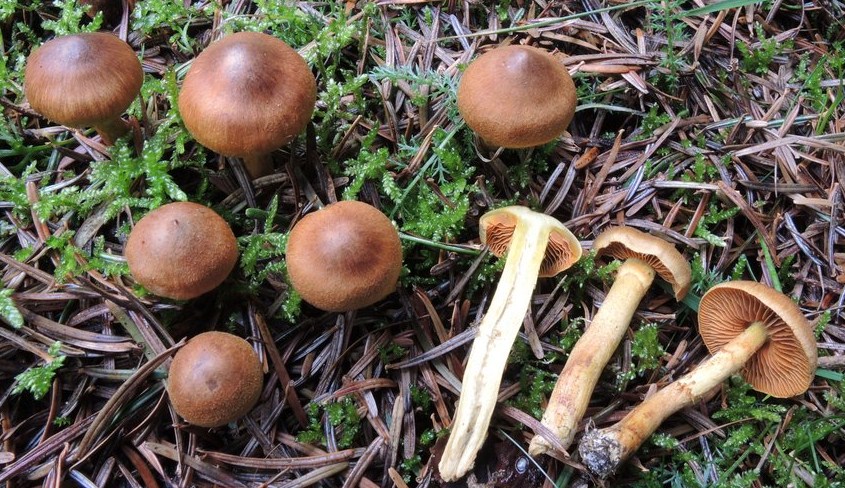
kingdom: Fungi
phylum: Basidiomycota
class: Agaricomycetes
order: Agaricales
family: Cortinariaceae
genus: Cortinarius
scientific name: Cortinarius cinnamomeus
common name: kanel-slørhat
